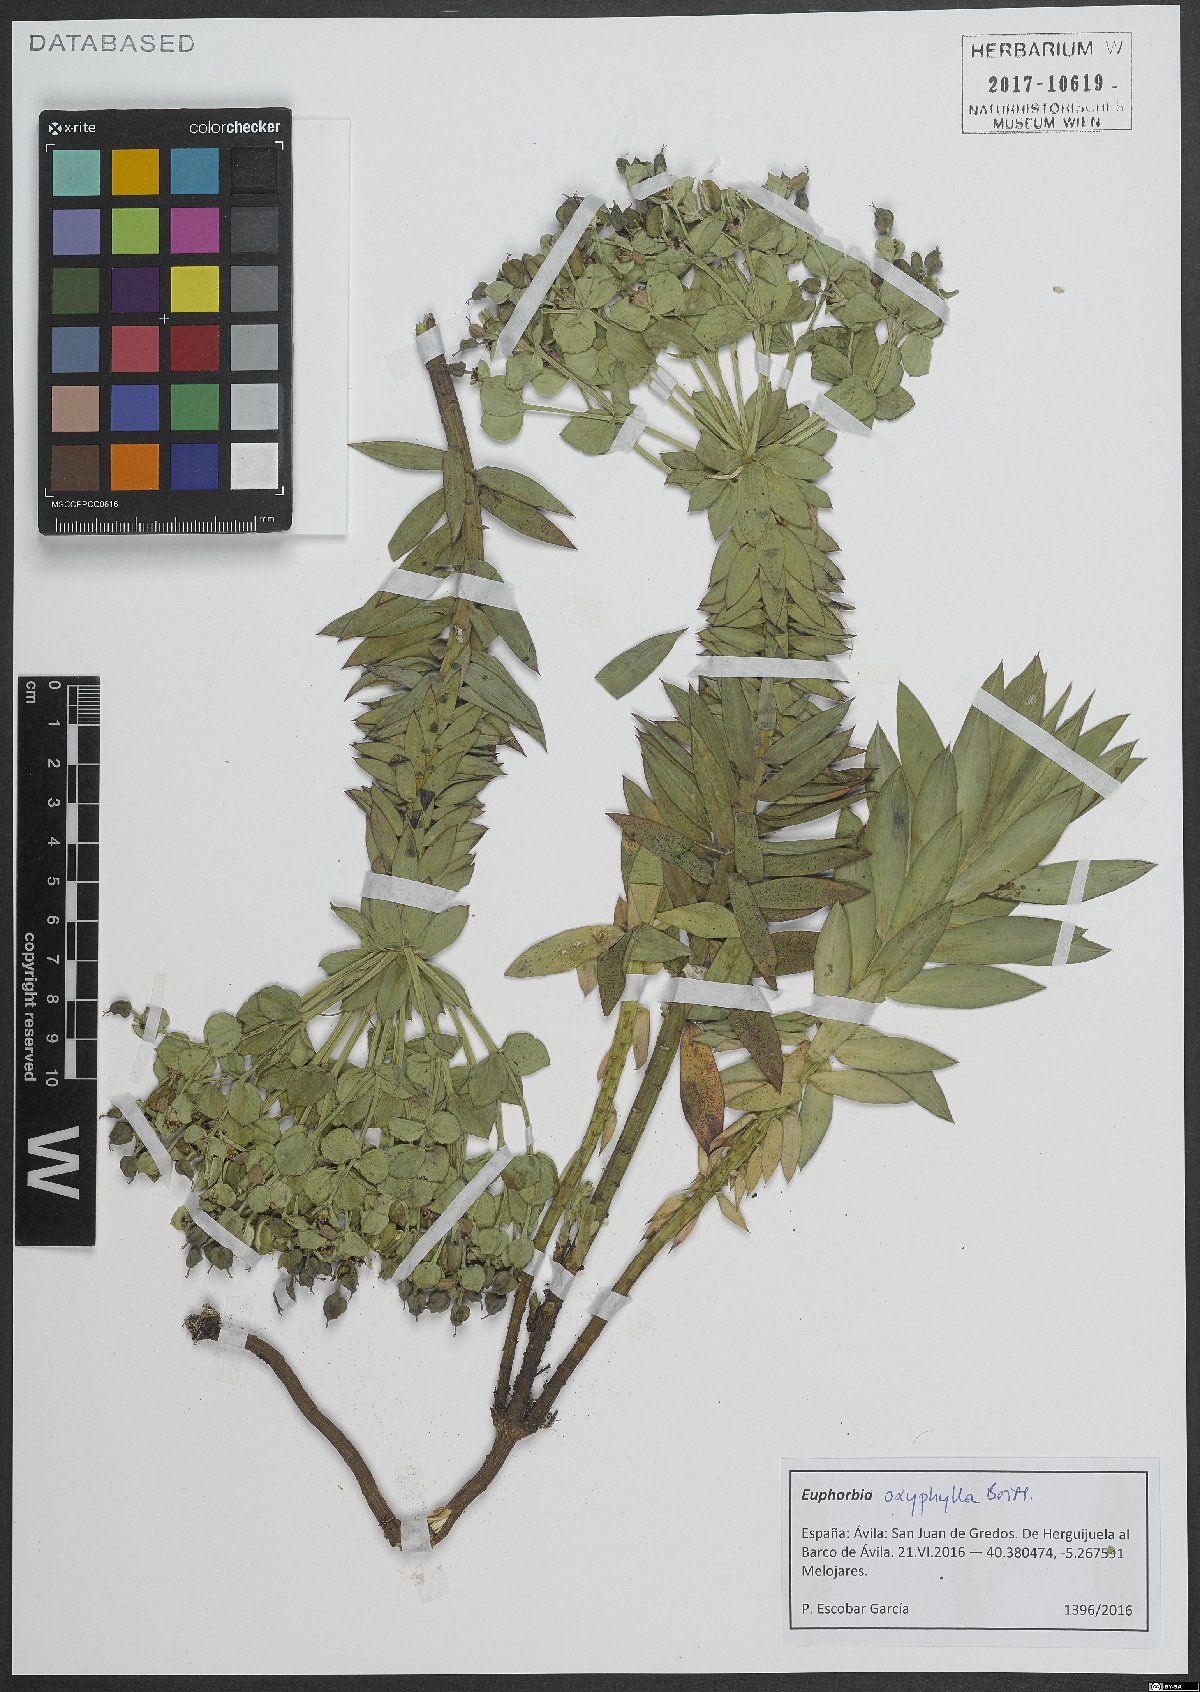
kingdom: Plantae
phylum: Tracheophyta
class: Magnoliopsida
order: Malpighiales
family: Euphorbiaceae
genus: Euphorbia
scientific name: Euphorbia oxyphylla
